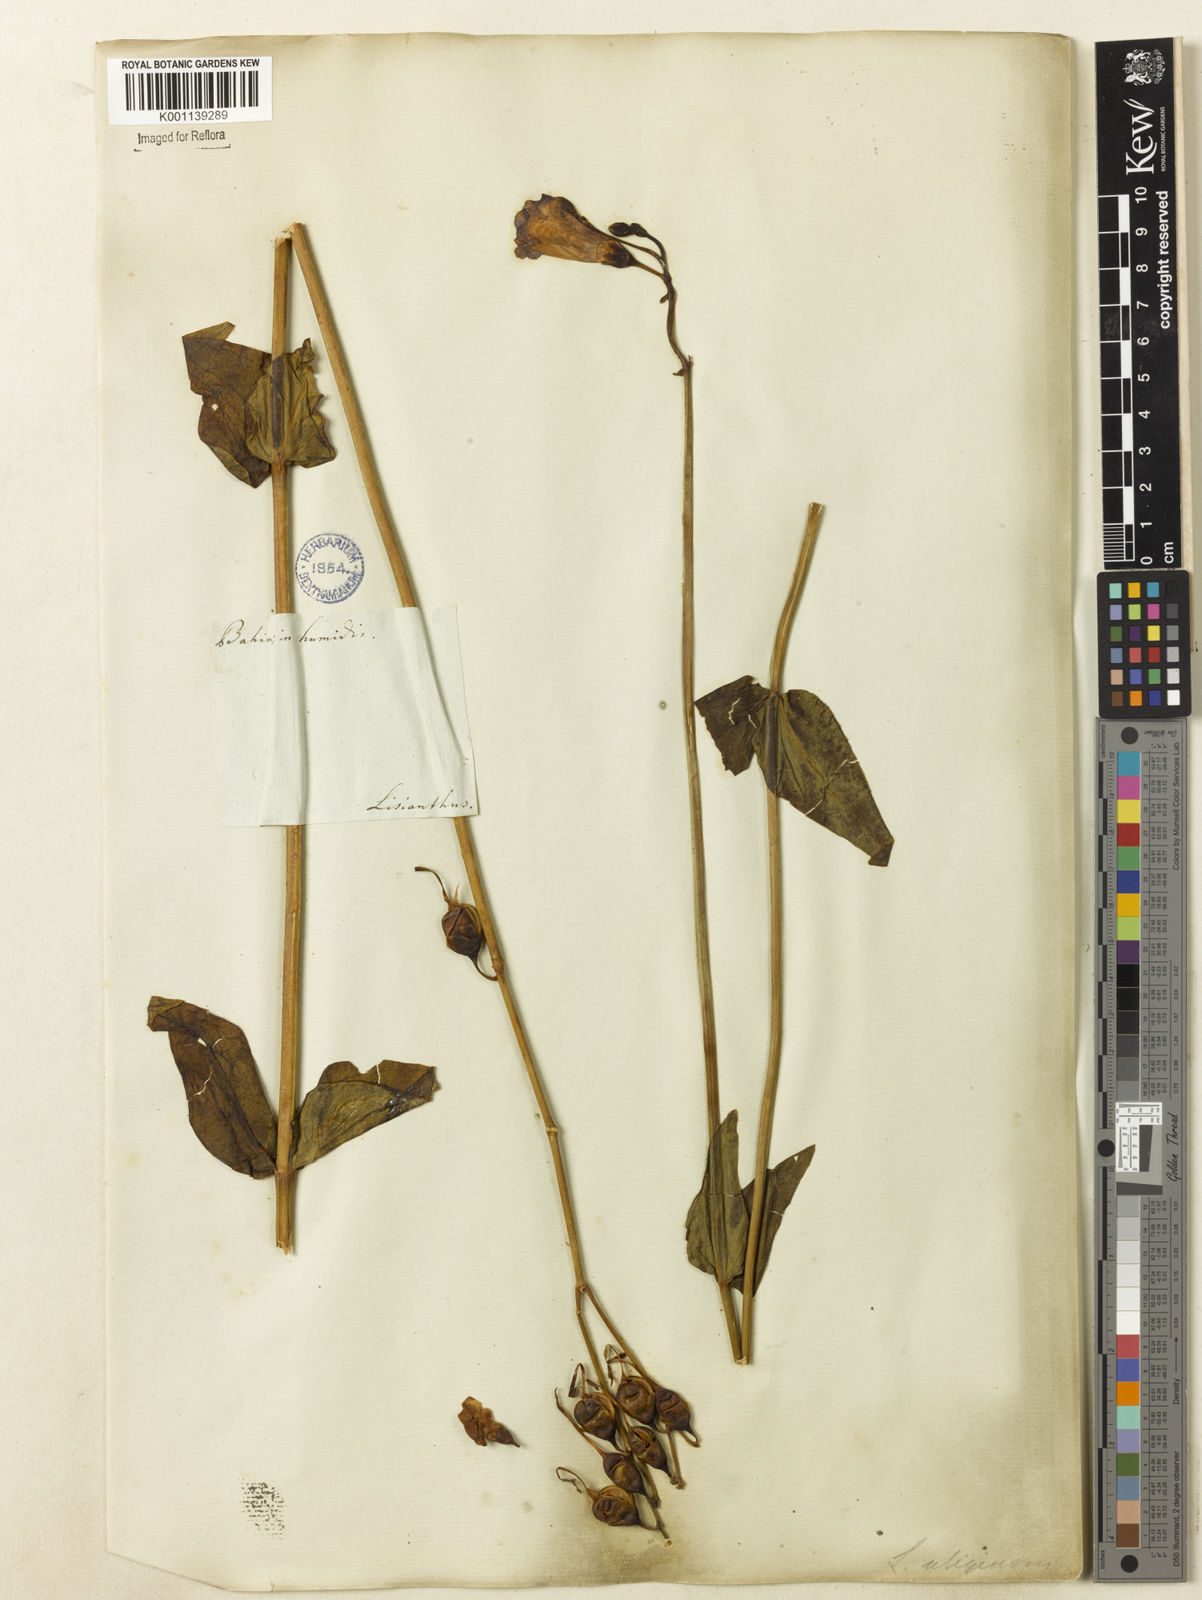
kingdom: Plantae
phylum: Tracheophyta
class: Magnoliopsida
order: Gentianales
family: Gentianaceae
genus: Chelonanthus
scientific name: Chelonanthus purpurascens
